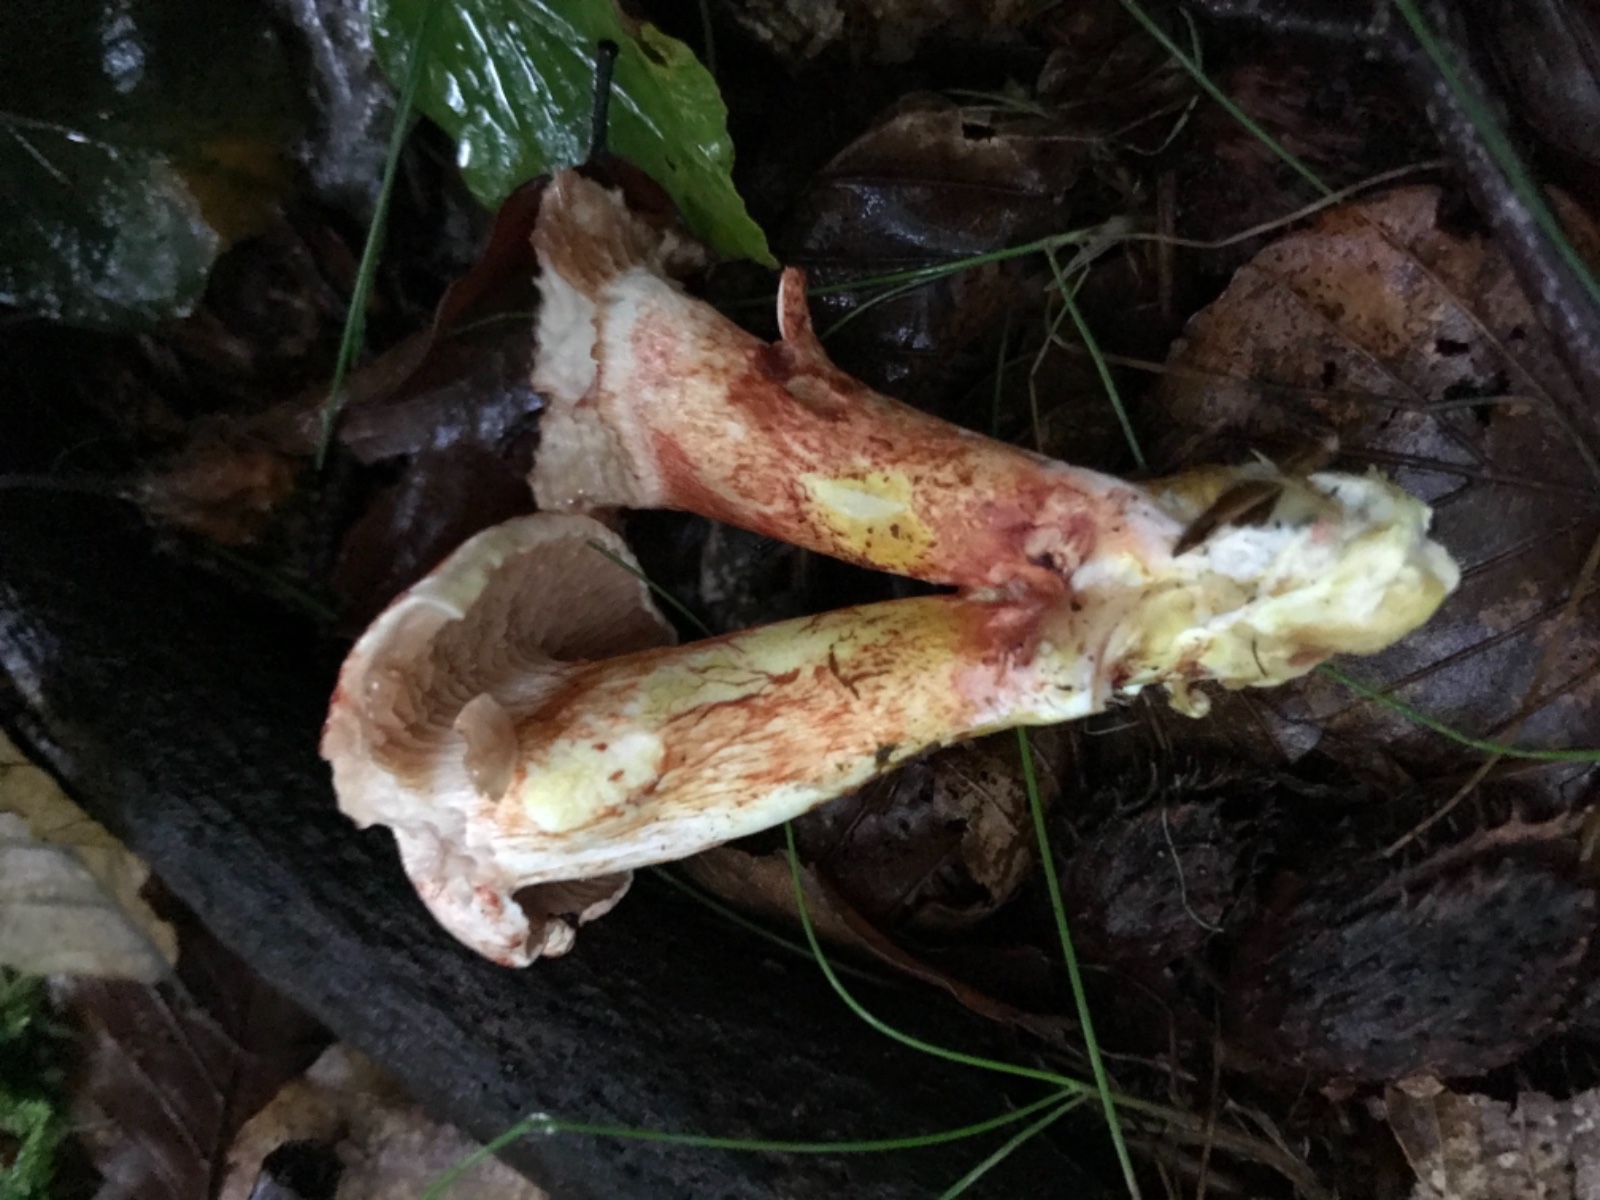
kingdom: Fungi
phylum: Basidiomycota
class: Agaricomycetes
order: Agaricales
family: Cortinariaceae
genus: Cortinarius
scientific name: Cortinarius bolaris
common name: cinnoberskællet slørhat
